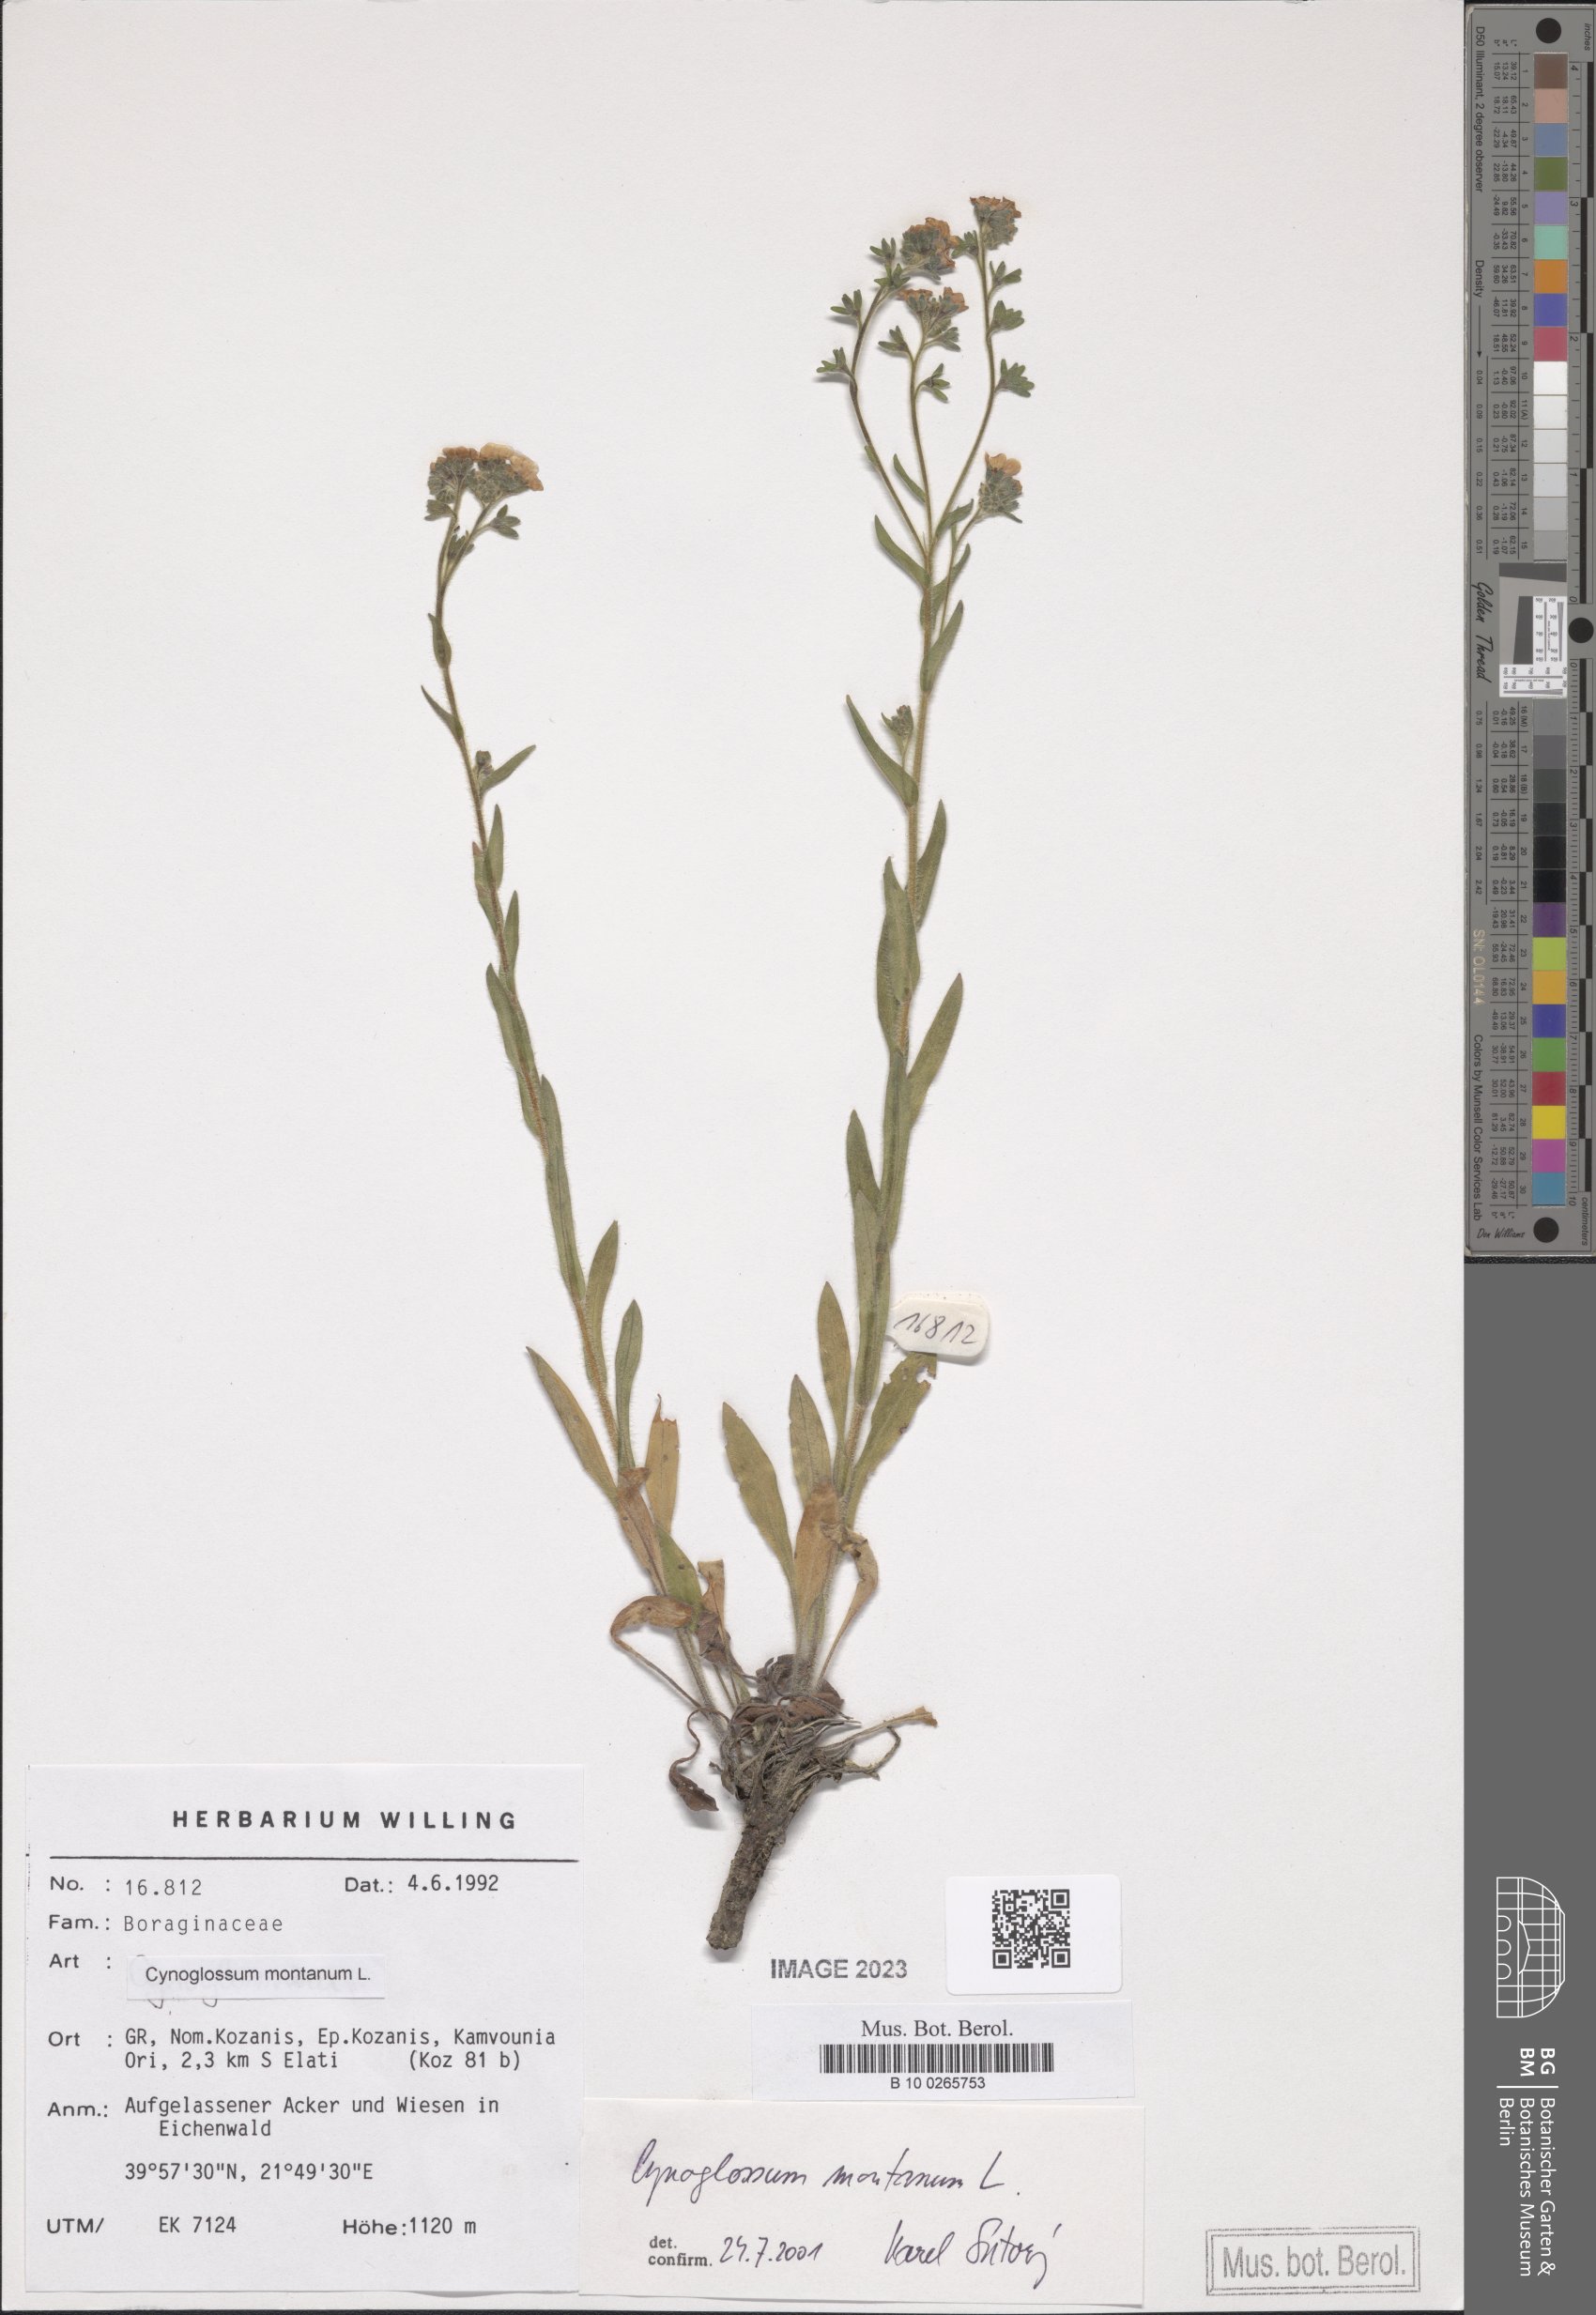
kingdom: Plantae
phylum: Tracheophyta
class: Magnoliopsida
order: Boraginales
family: Boraginaceae
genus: Cynoglossum
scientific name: Cynoglossum montanum
